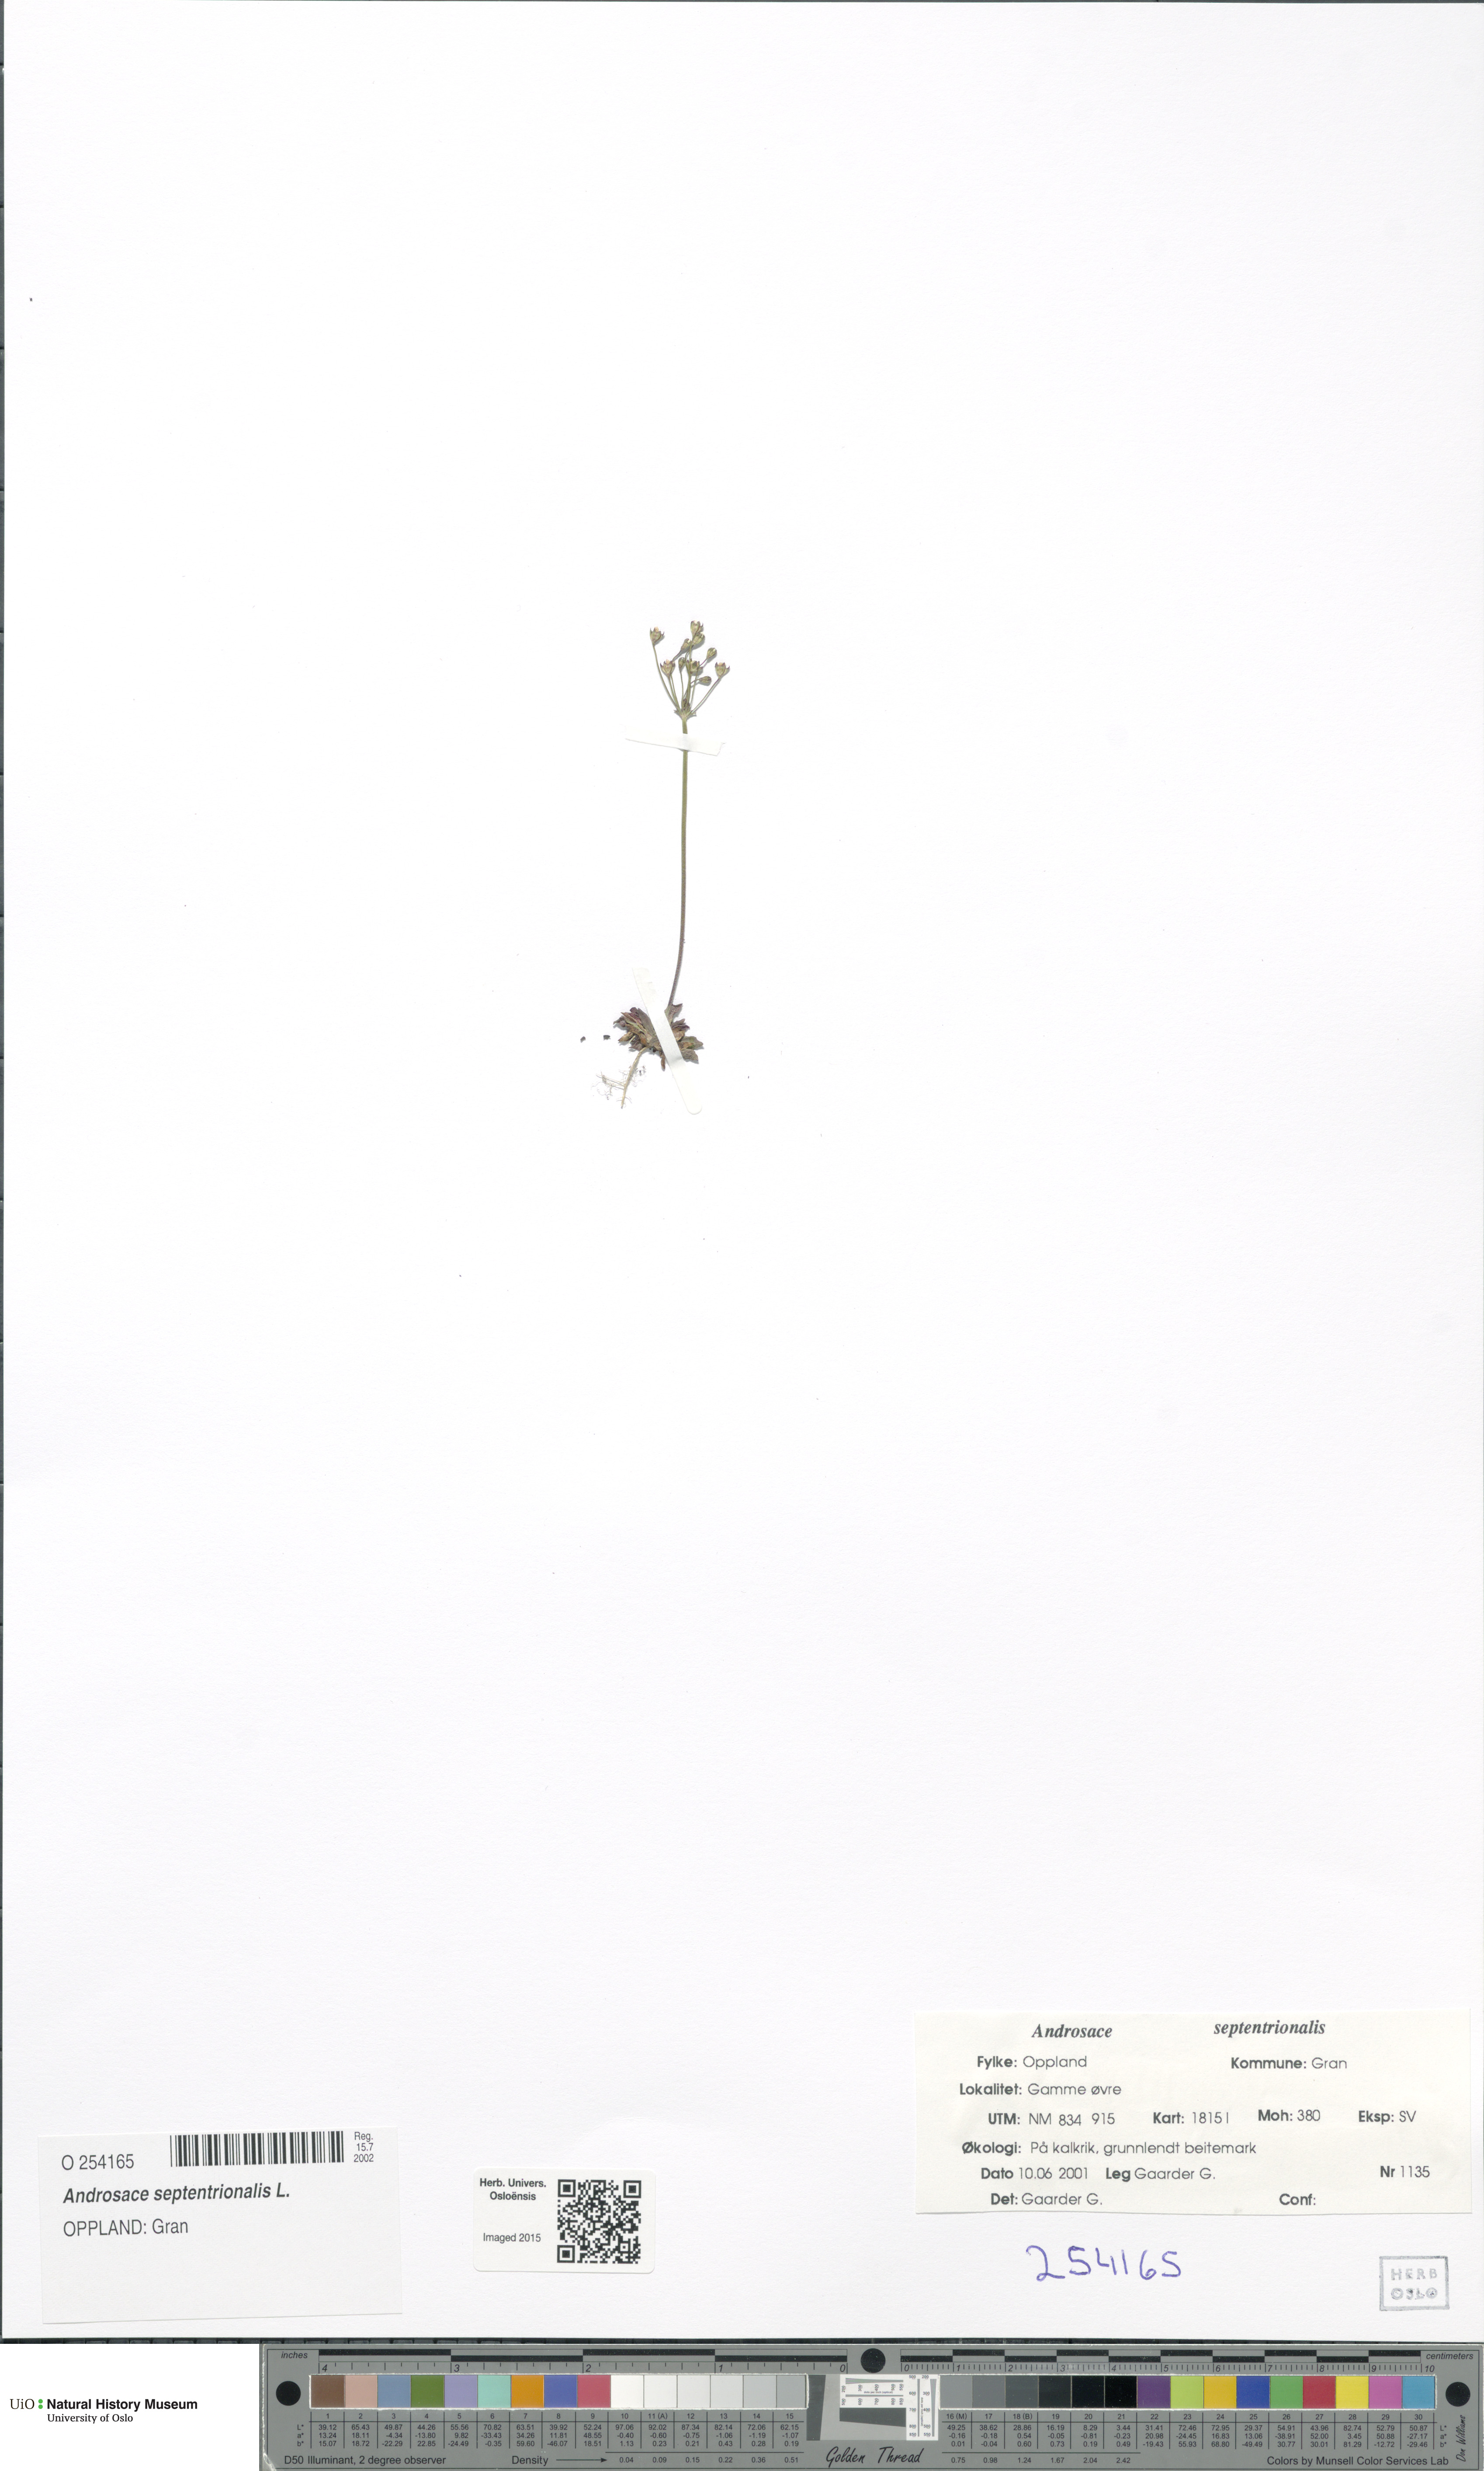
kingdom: Plantae
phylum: Tracheophyta
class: Magnoliopsida
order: Ericales
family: Primulaceae
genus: Androsace
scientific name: Androsace septentrionalis
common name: Hairy northern fairy-candelabra
